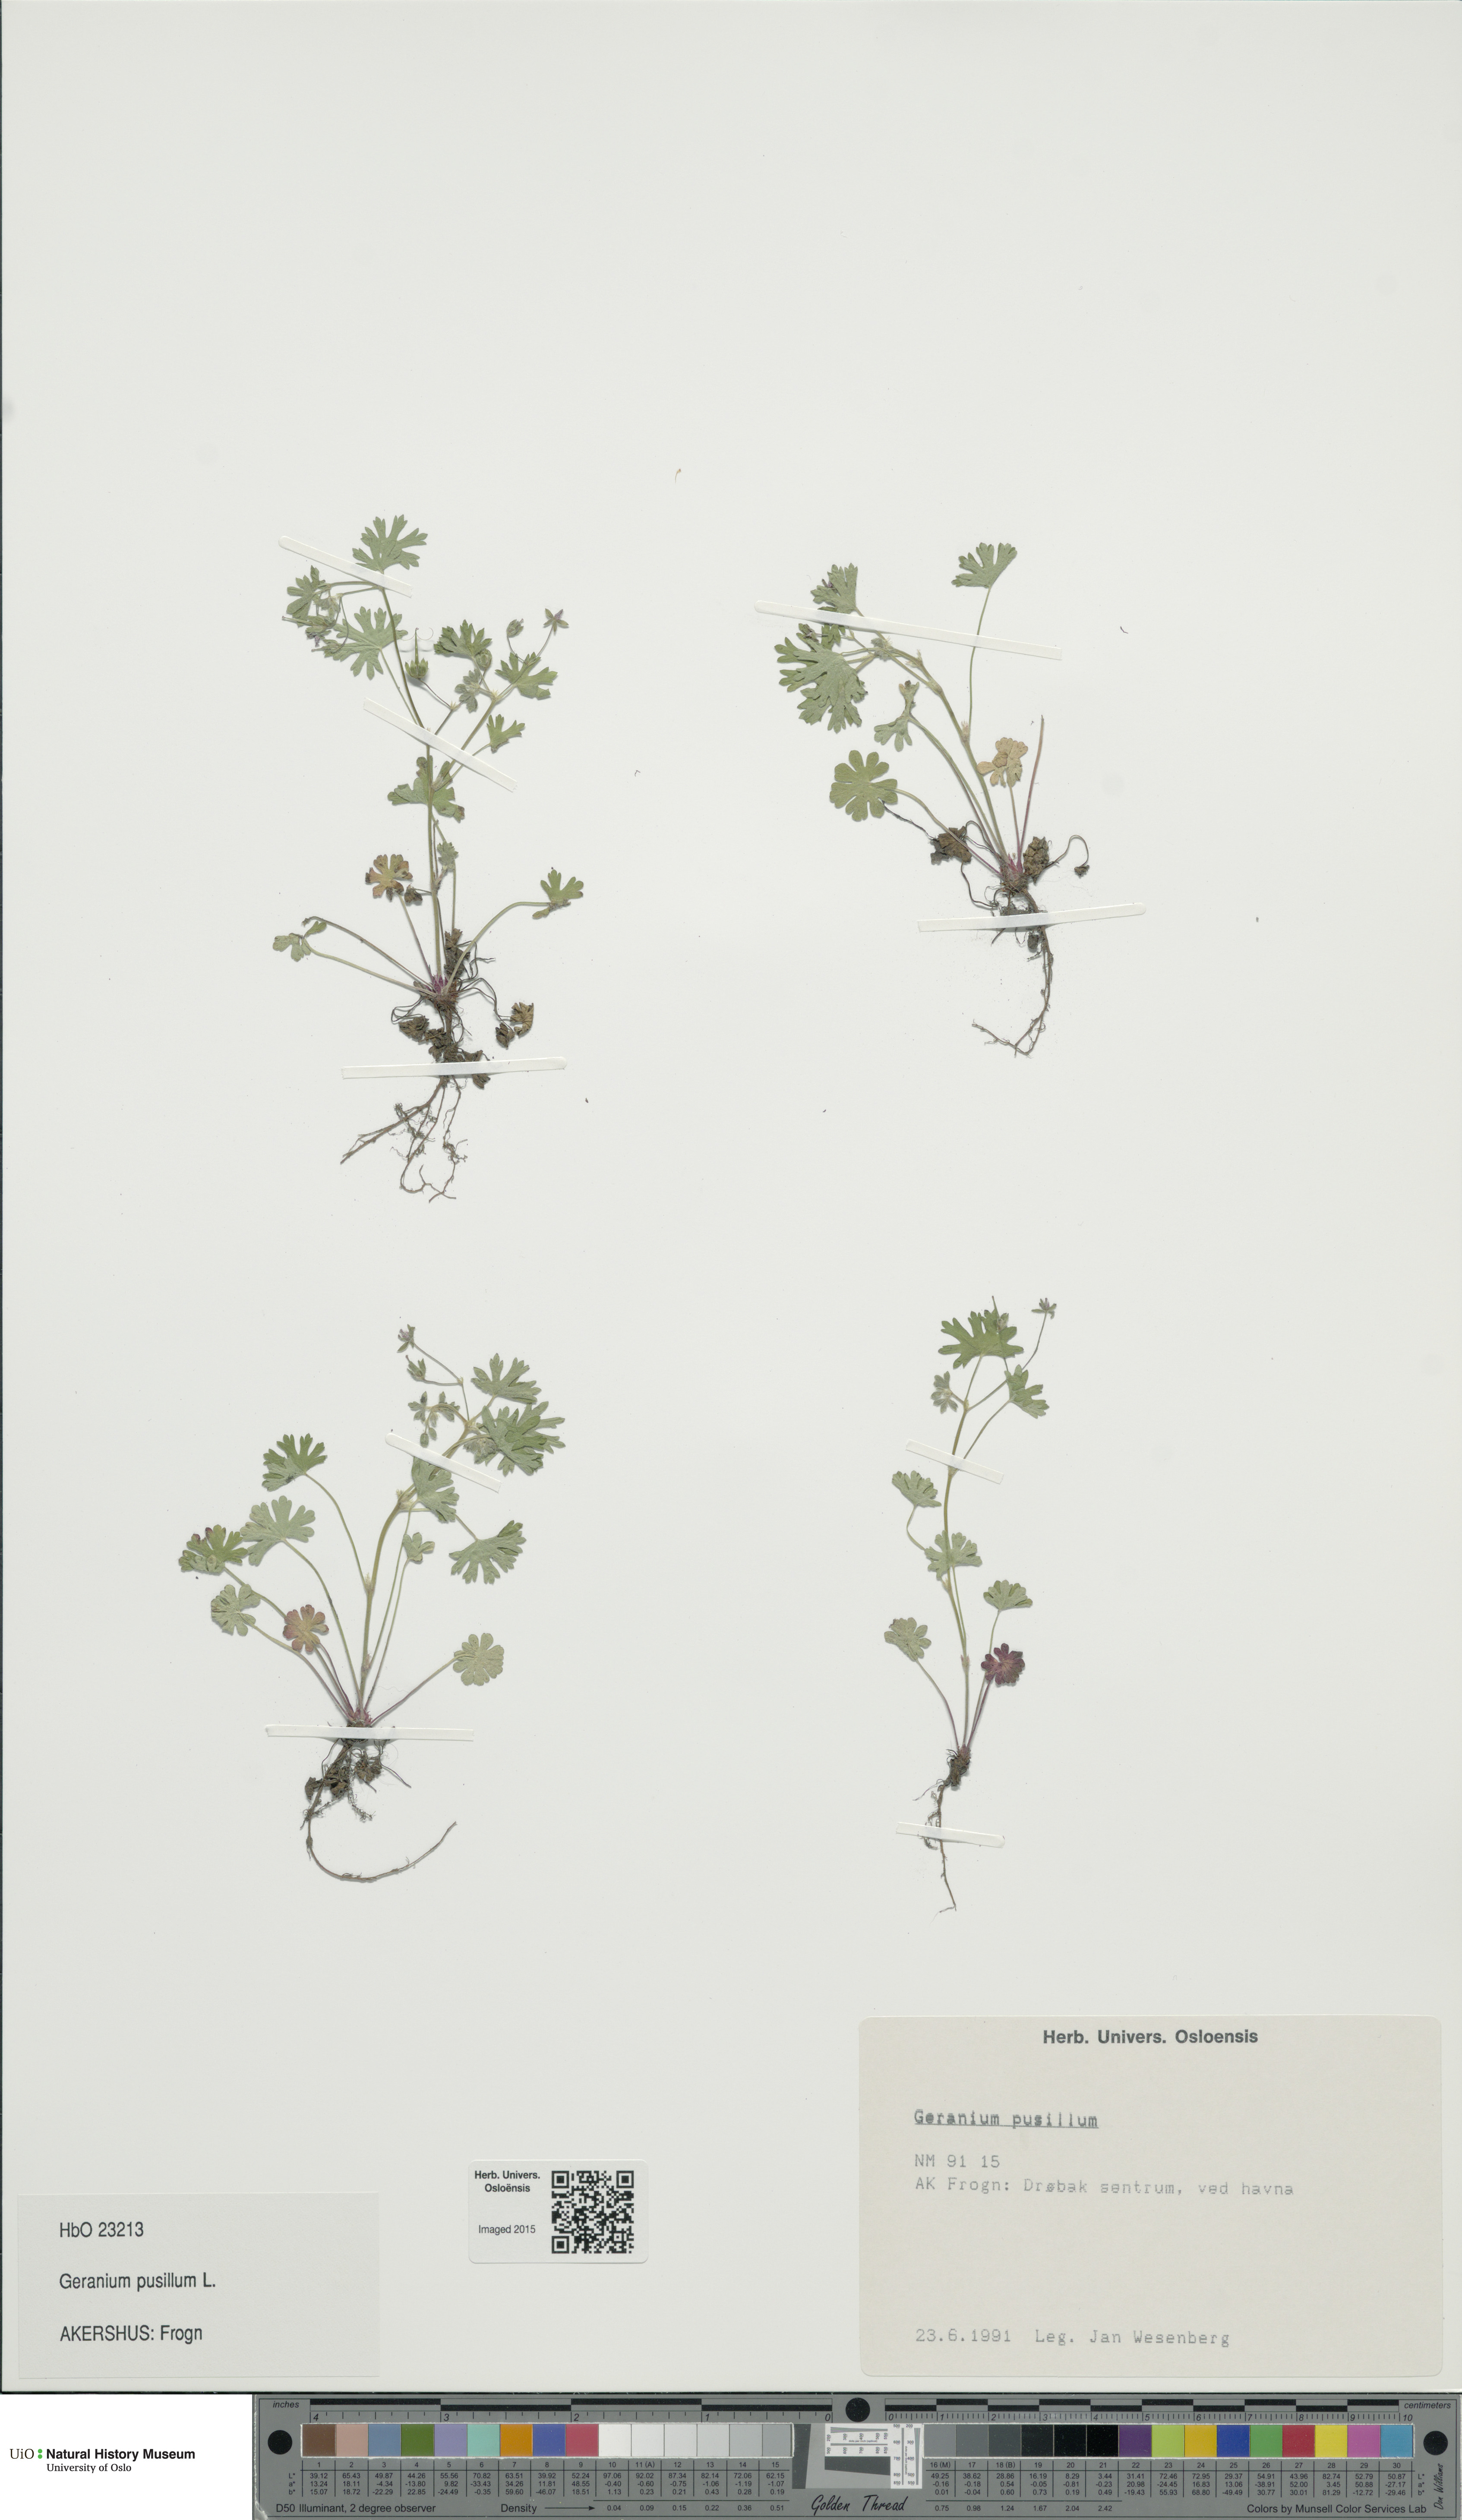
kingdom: Plantae
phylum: Tracheophyta
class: Magnoliopsida
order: Geraniales
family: Geraniaceae
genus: Geranium
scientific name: Geranium pusillum
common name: Small geranium
